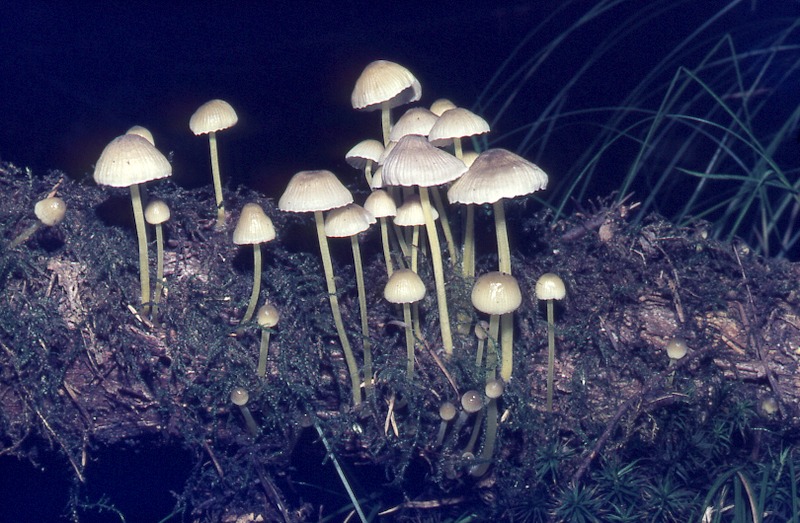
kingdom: Fungi
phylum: Basidiomycota
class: Agaricomycetes
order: Agaricales
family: Mycenaceae
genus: Mycena
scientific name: Mycena epipterygia
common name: Yellowleg bonnet
